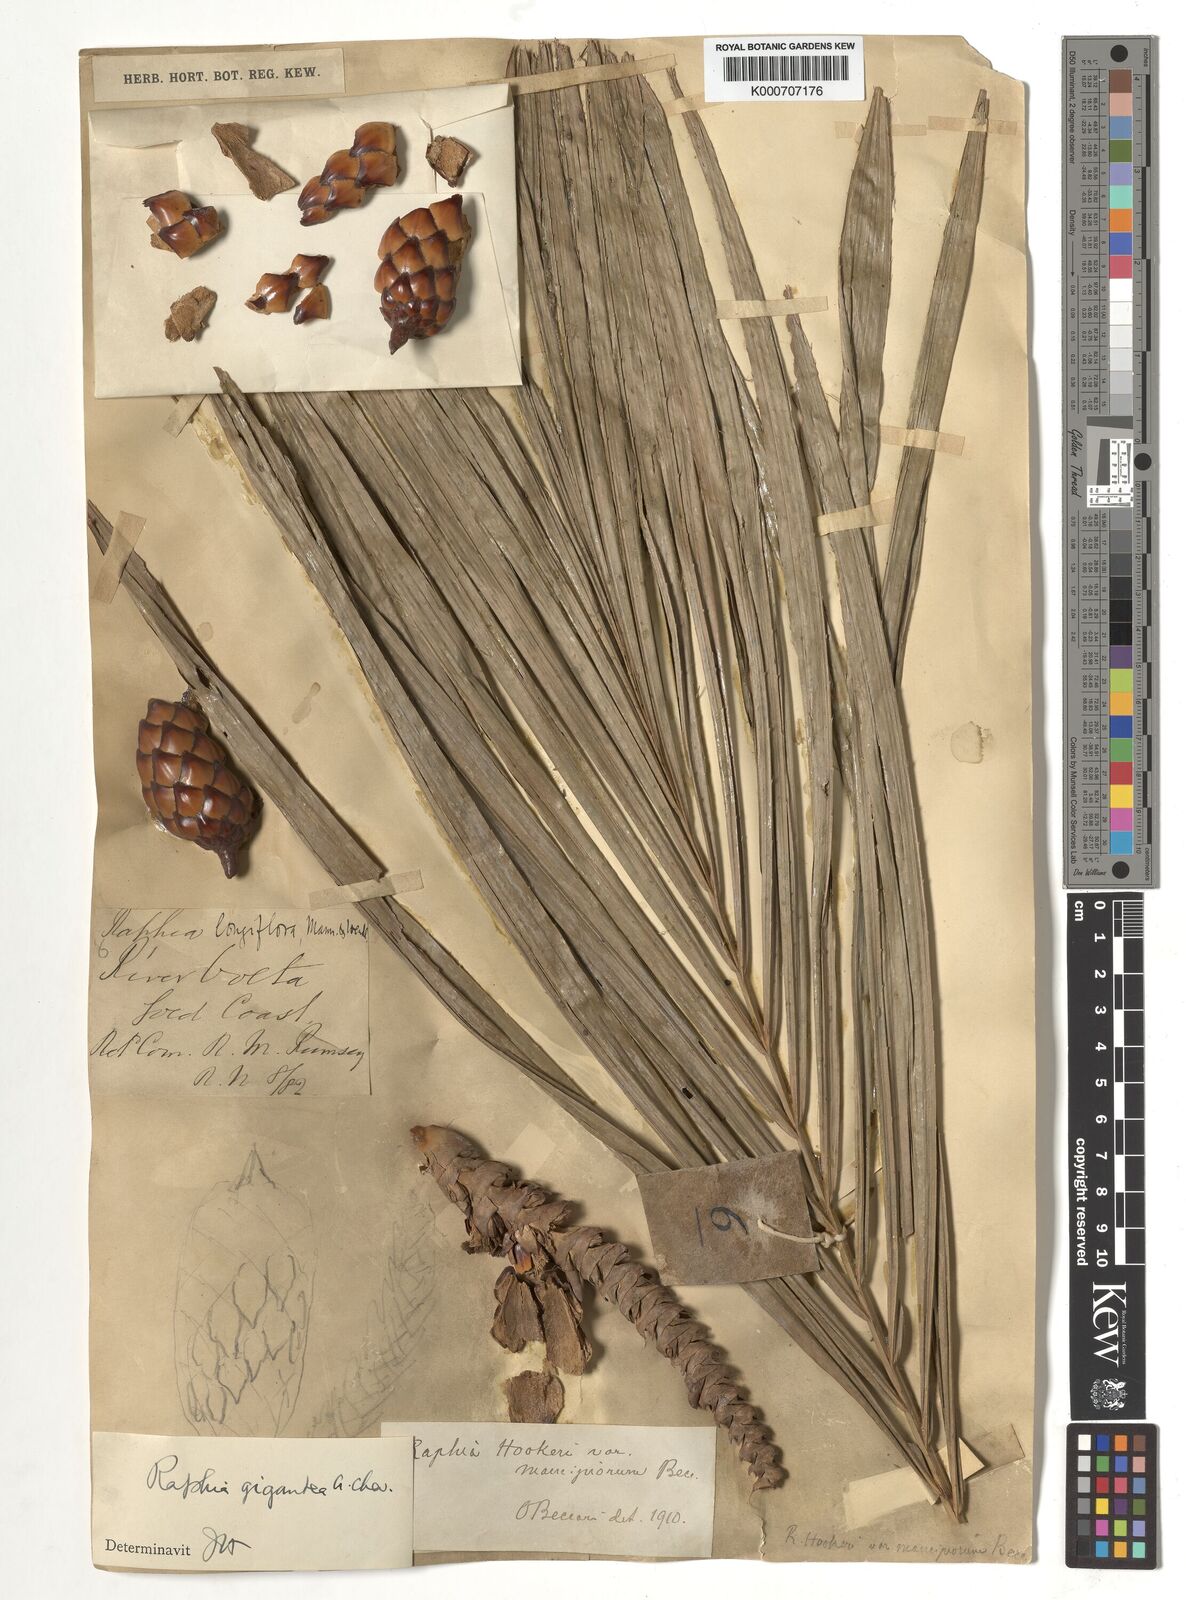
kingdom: Plantae
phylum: Tracheophyta
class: Liliopsida
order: Arecales
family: Arecaceae
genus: Raphia
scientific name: Raphia hookeri
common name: Wine palm
